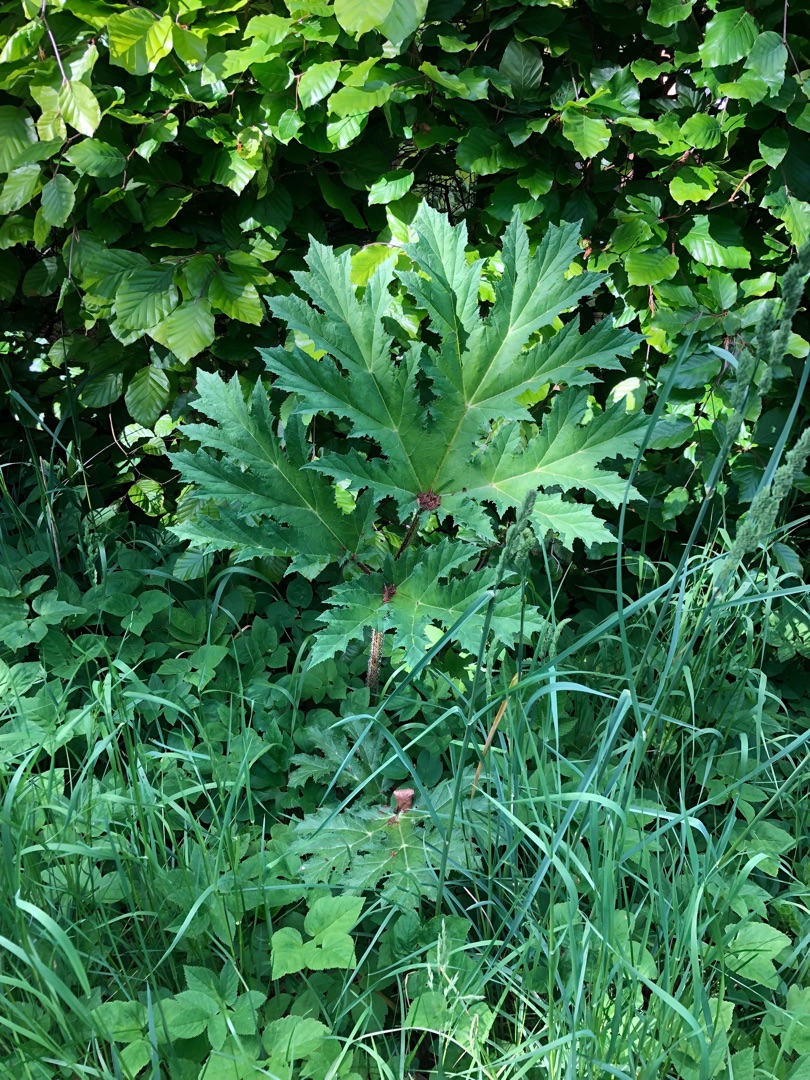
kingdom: Plantae
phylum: Tracheophyta
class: Magnoliopsida
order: Apiales
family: Apiaceae
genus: Heracleum
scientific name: Heracleum mantegazzianum
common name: Kæmpe-bjørneklo
